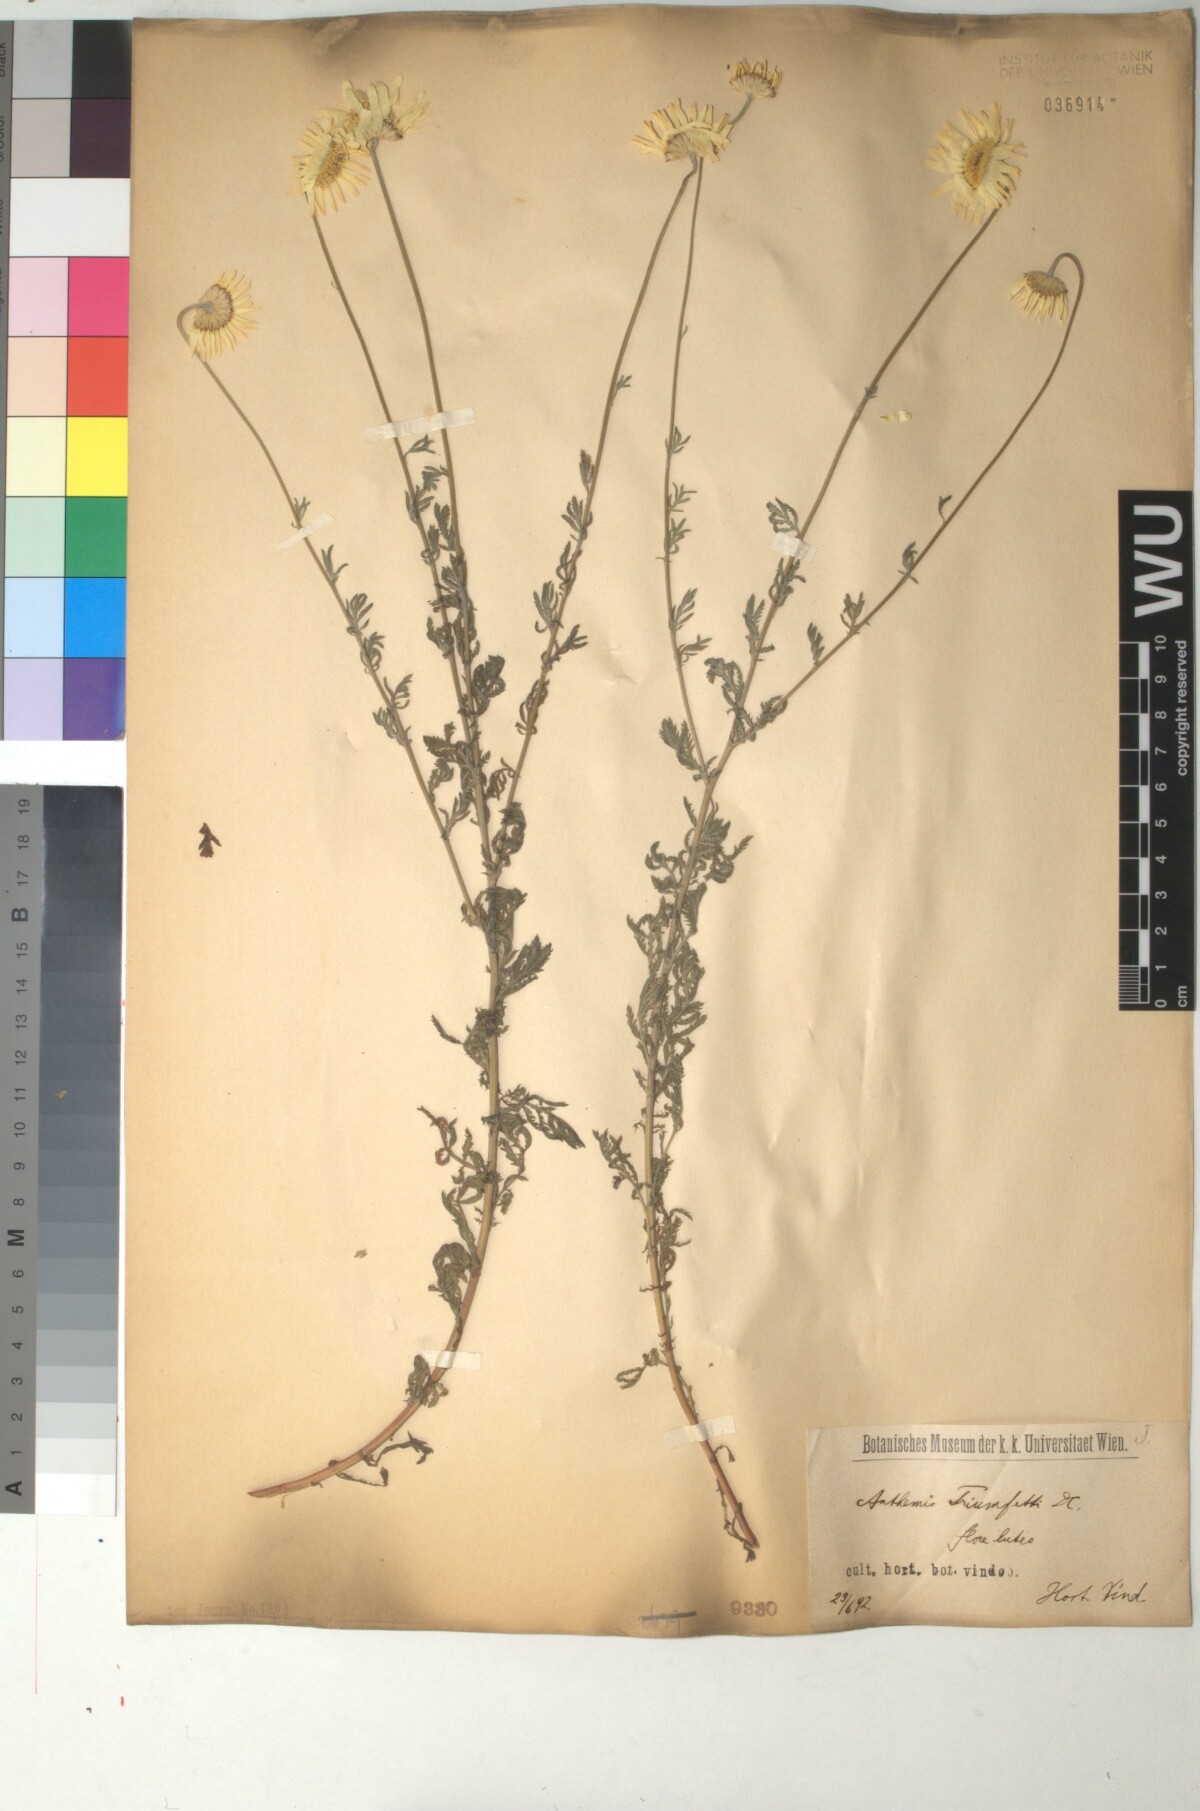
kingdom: Plantae
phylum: Tracheophyta
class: Magnoliopsida
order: Asterales
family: Asteraceae
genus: Cota
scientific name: Cota triumfetti
